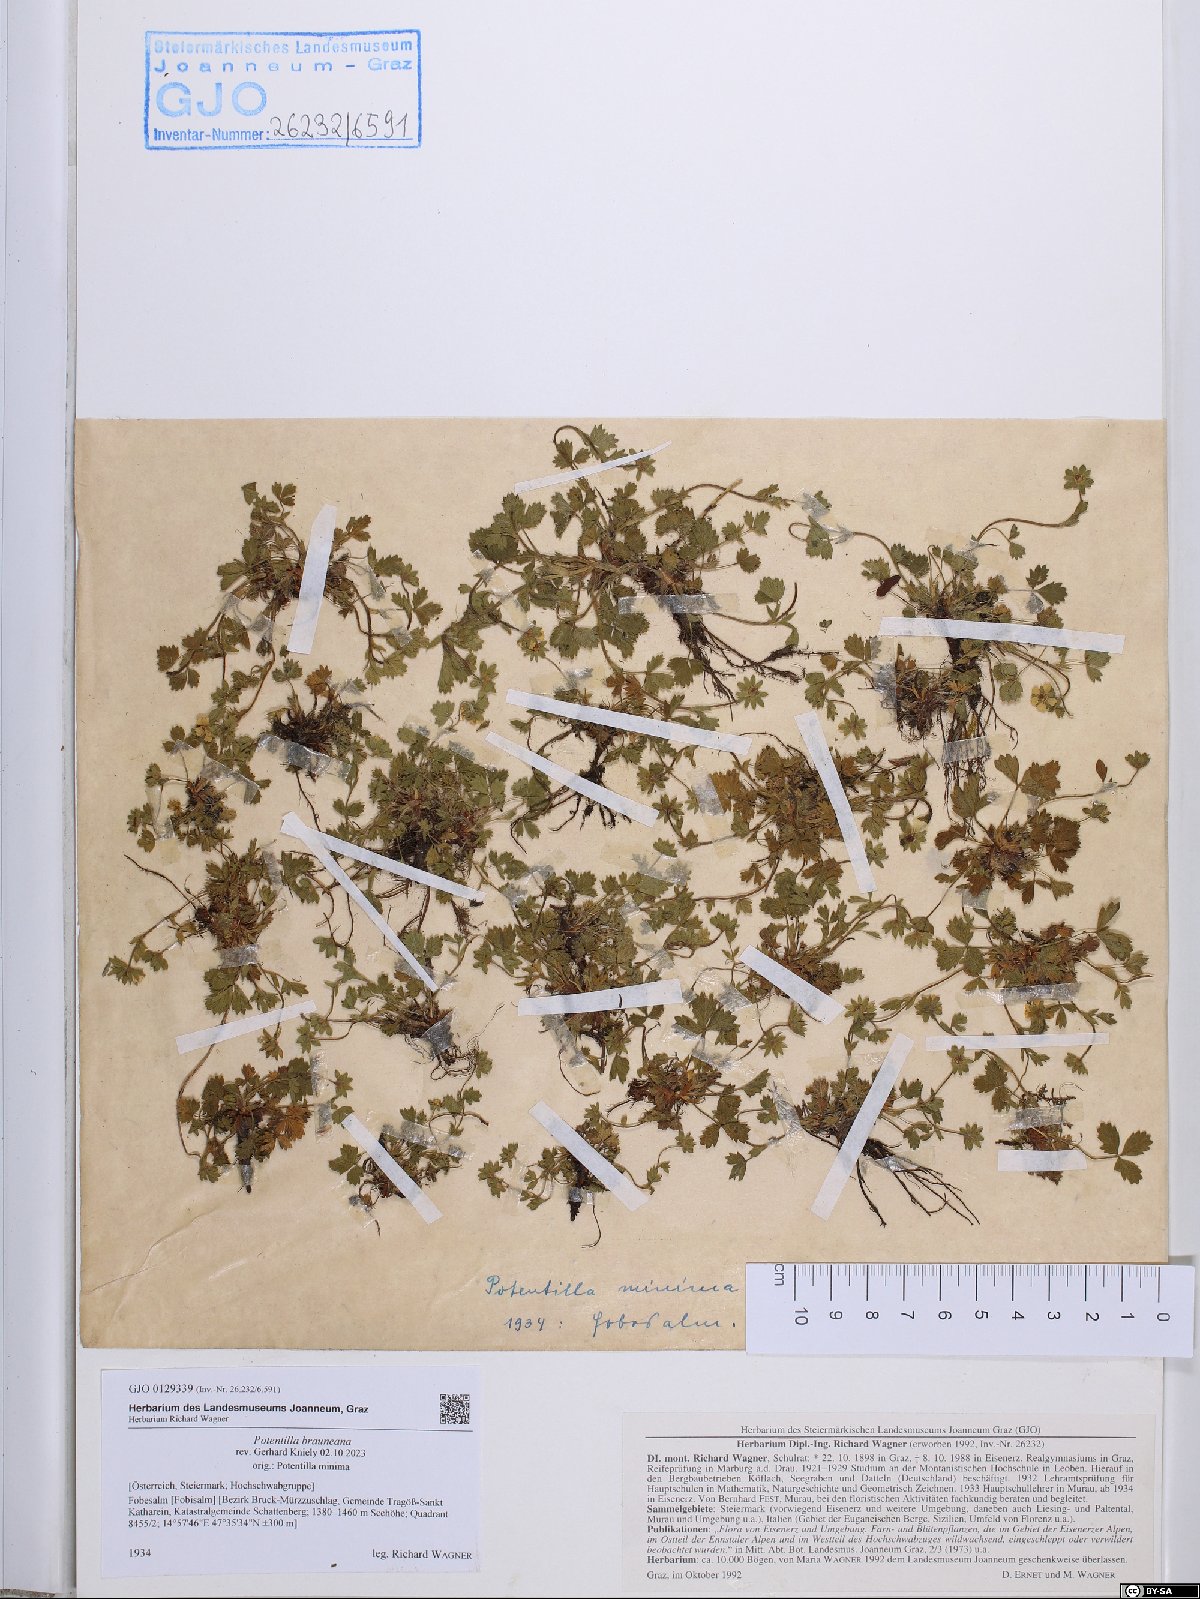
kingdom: Plantae
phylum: Tracheophyta
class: Magnoliopsida
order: Rosales
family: Rosaceae
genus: Potentilla
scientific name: Potentilla brauneana
